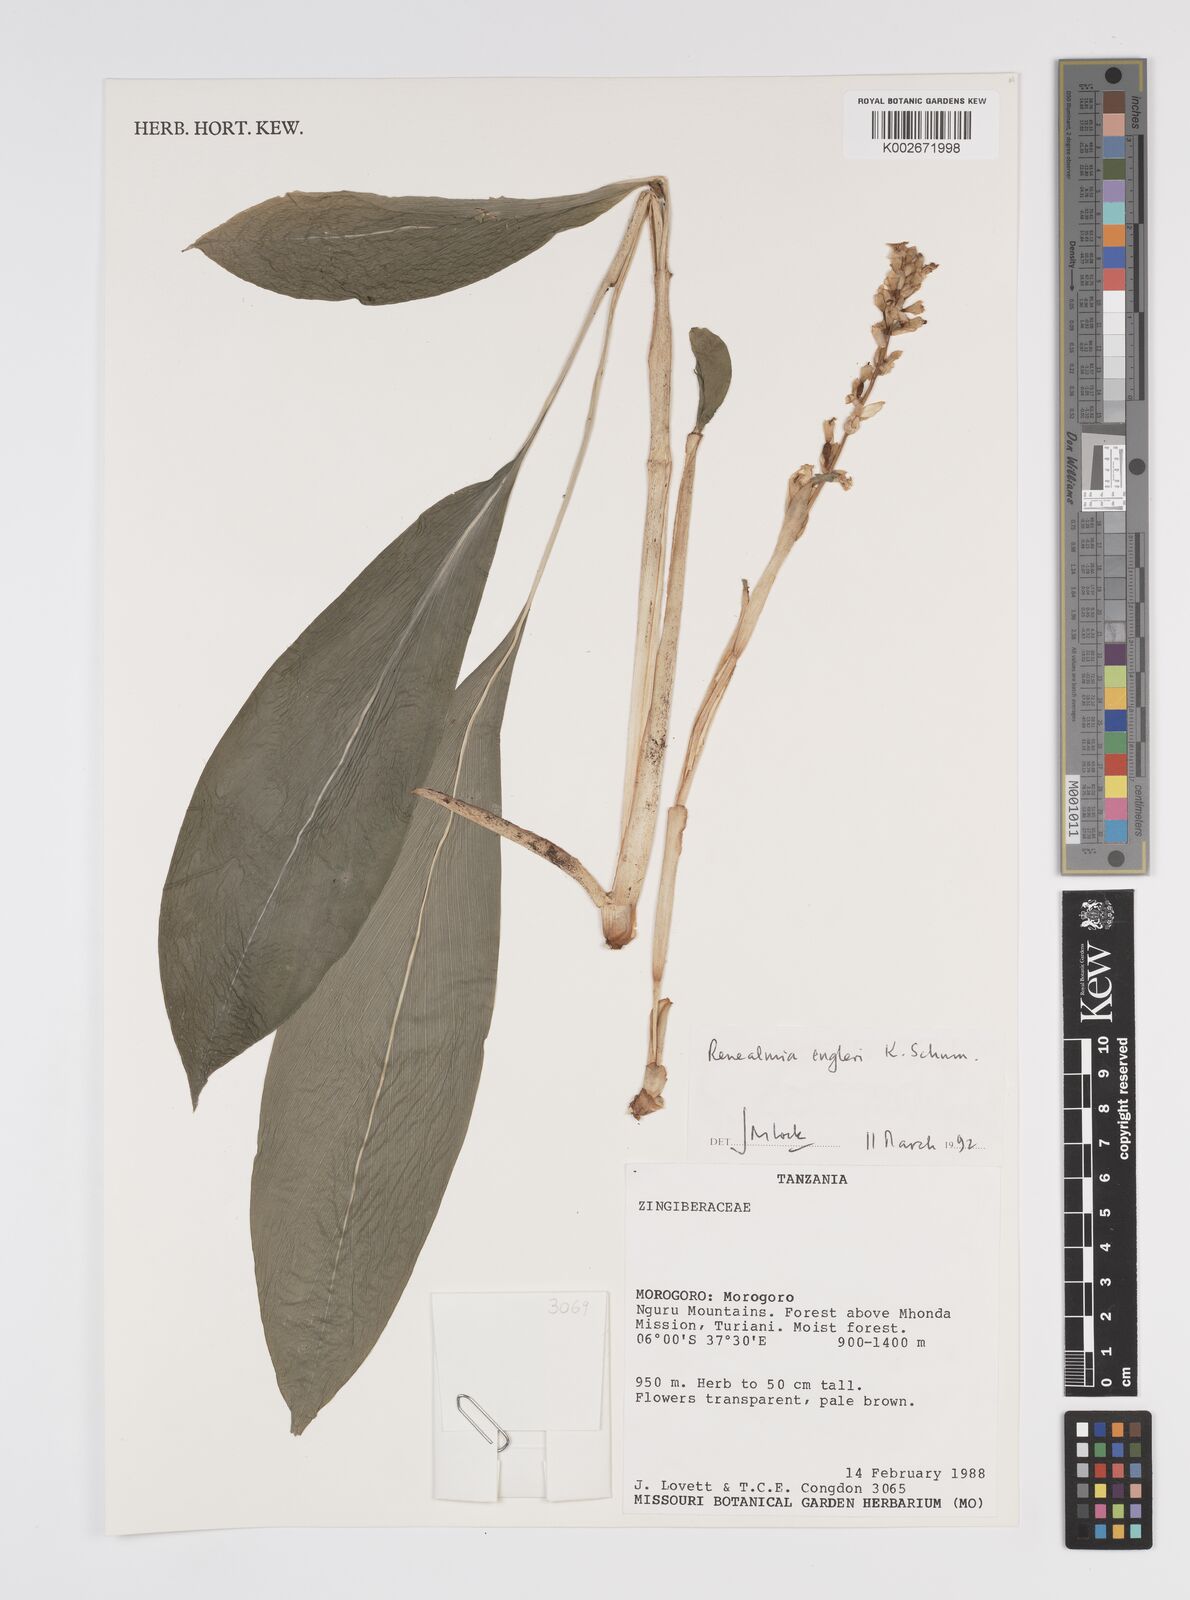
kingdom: Plantae
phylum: Tracheophyta
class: Liliopsida
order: Zingiberales
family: Zingiberaceae
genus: Renealmia
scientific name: Renealmia engleri
